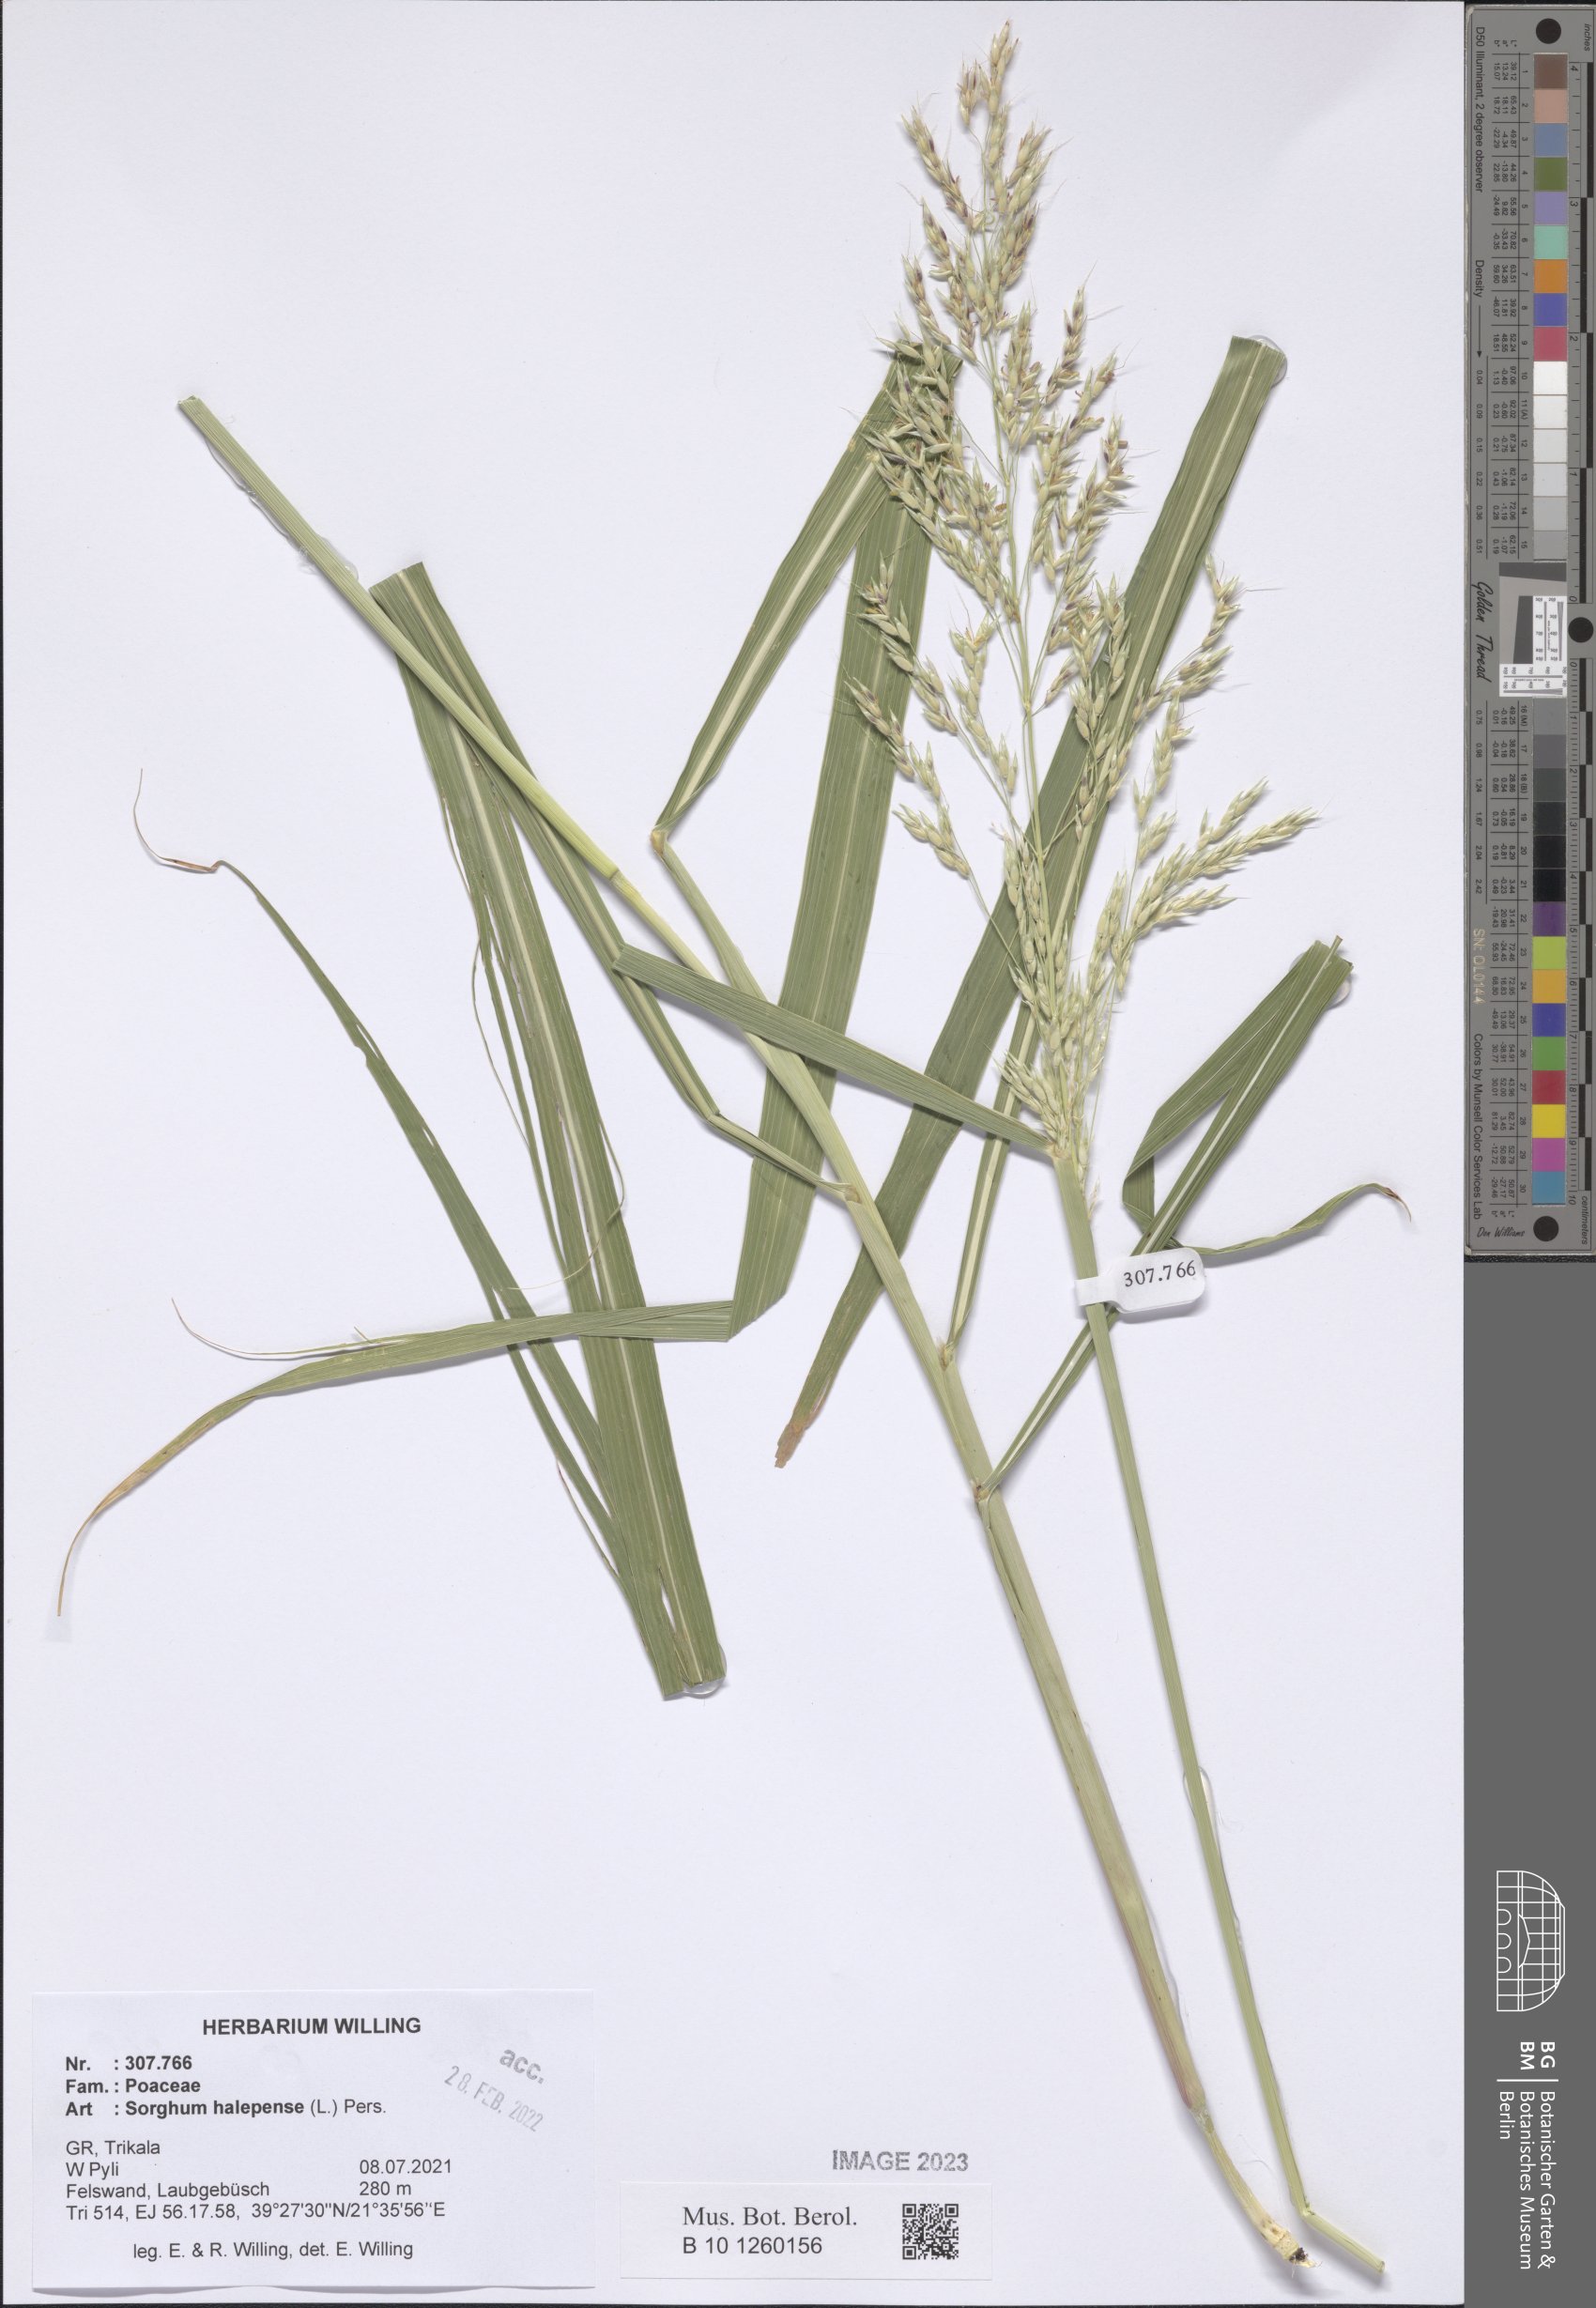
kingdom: Plantae
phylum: Tracheophyta
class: Liliopsida
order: Poales
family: Poaceae
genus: Sorghum
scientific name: Sorghum halepense
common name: Johnson-grass
